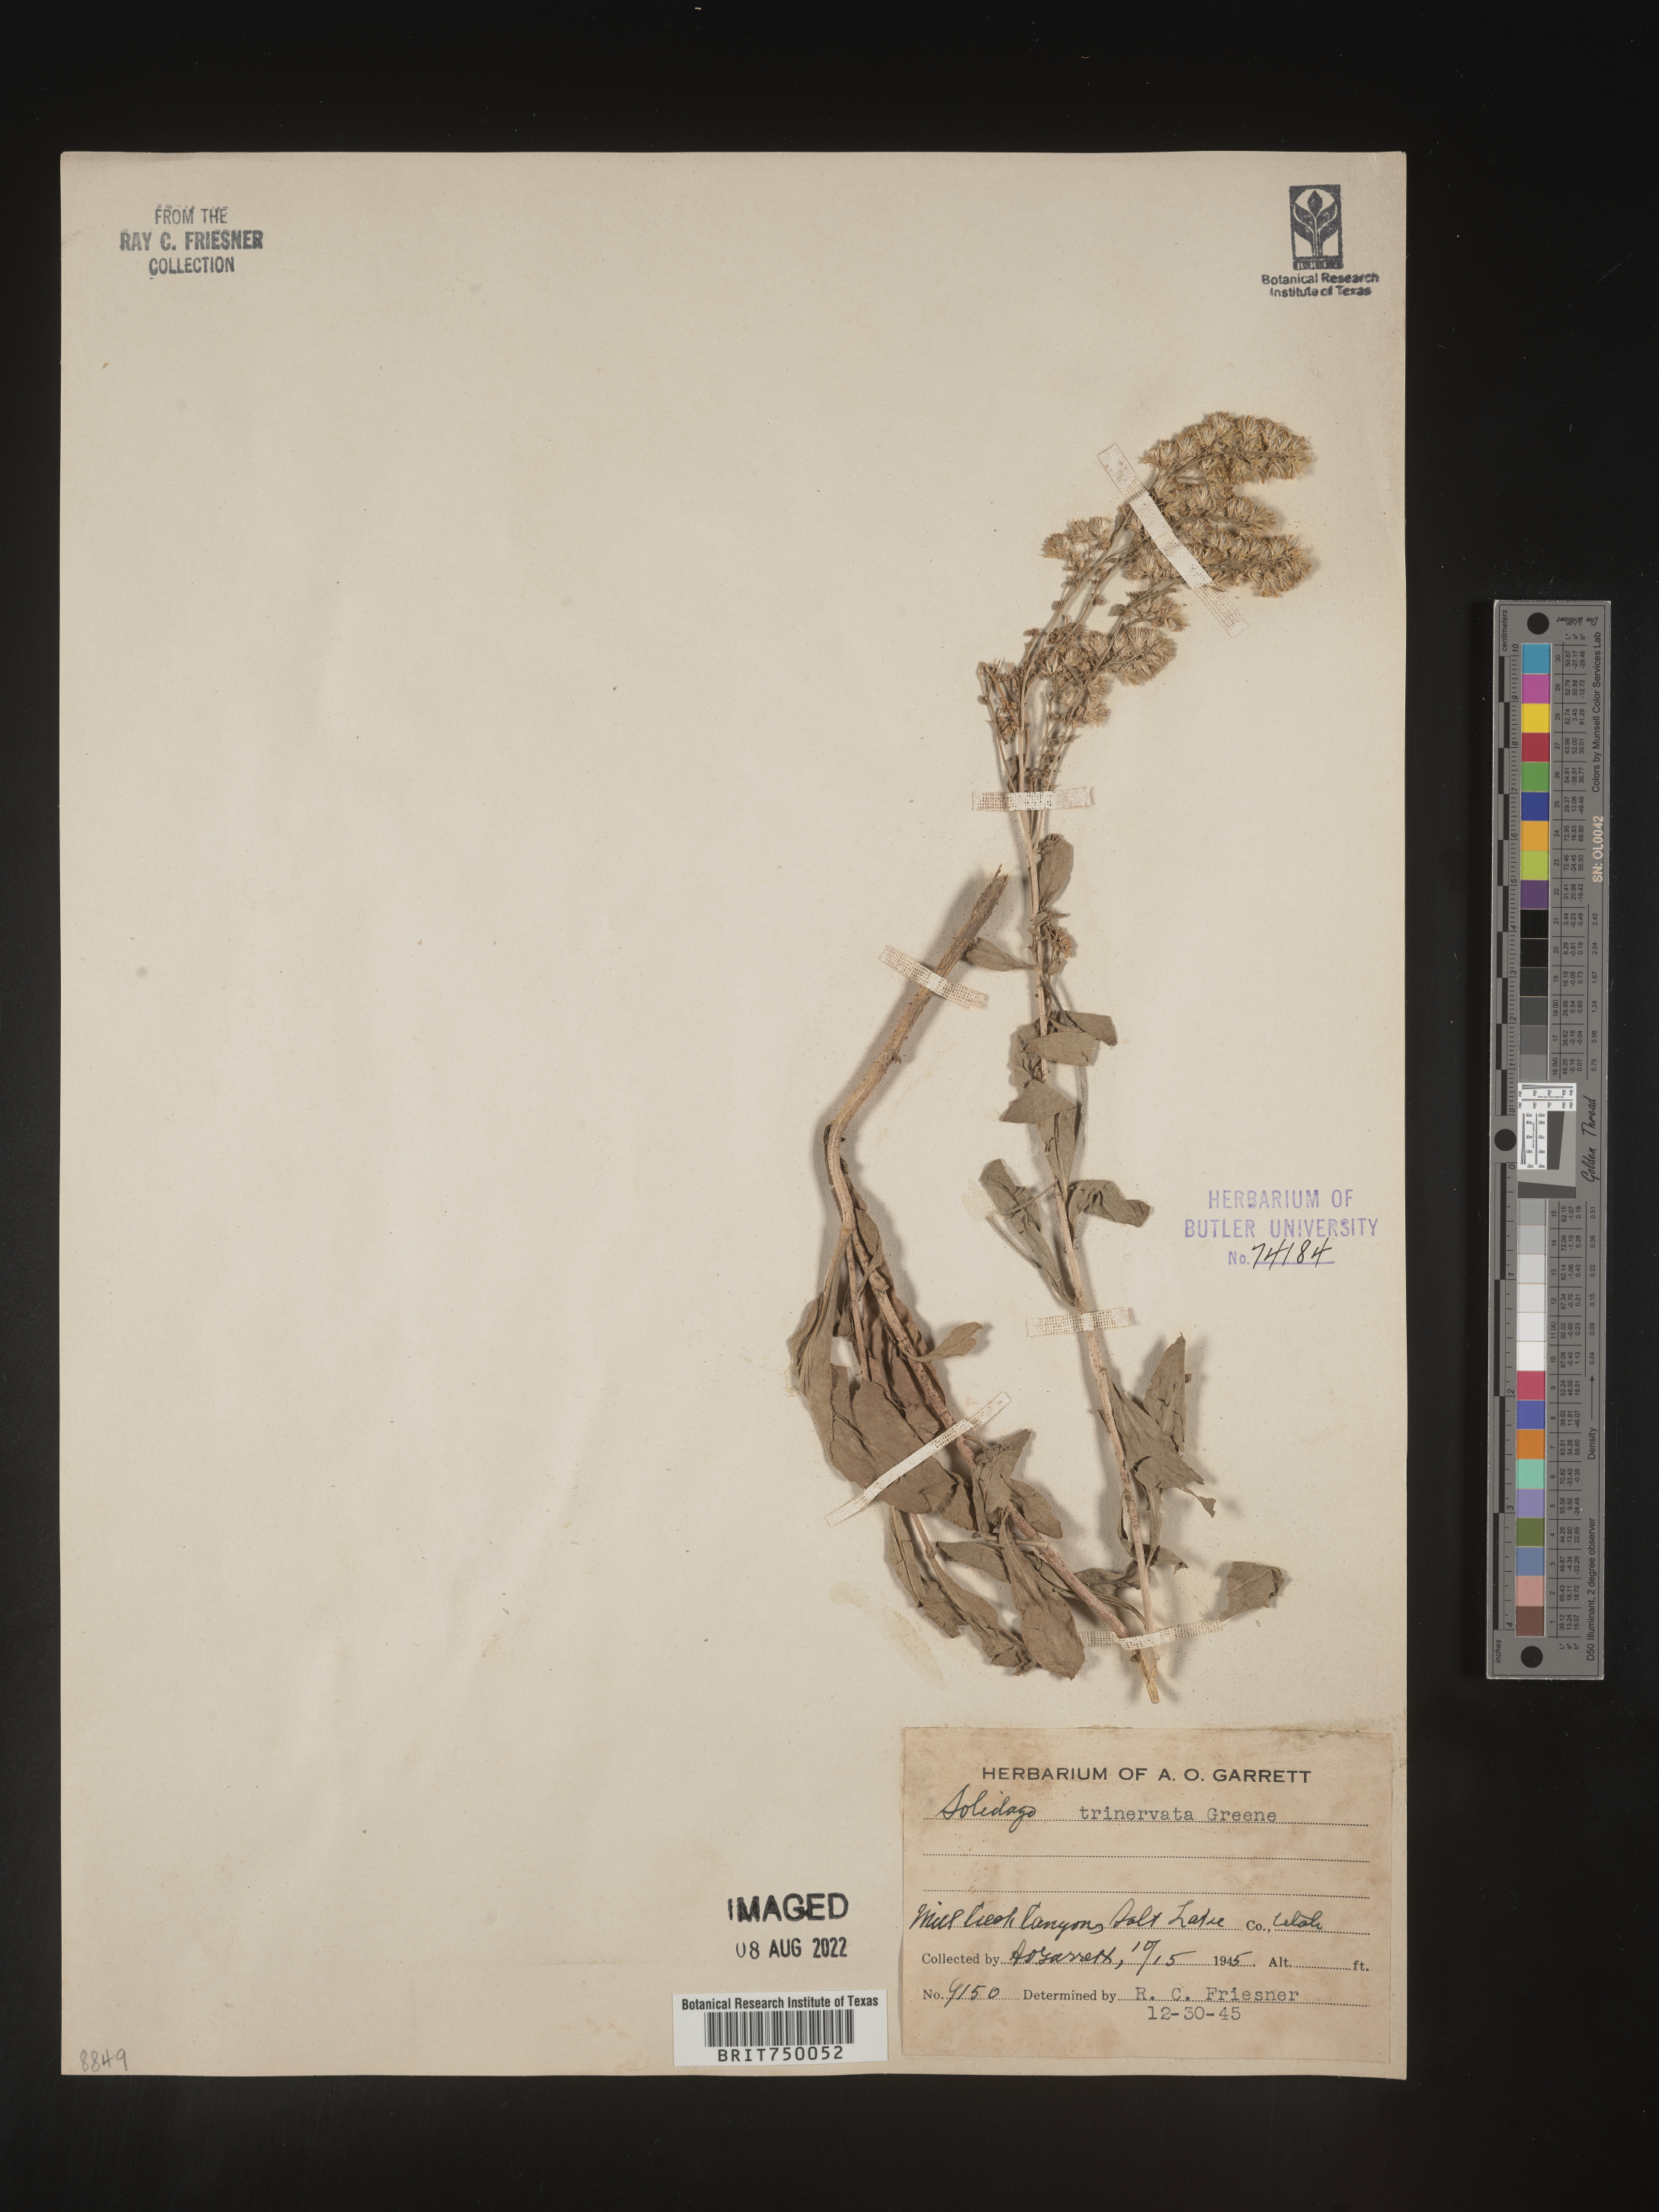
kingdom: Plantae
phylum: Tracheophyta
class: Magnoliopsida
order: Asterales
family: Asteraceae
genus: Solidago
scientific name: Solidago garrettii
